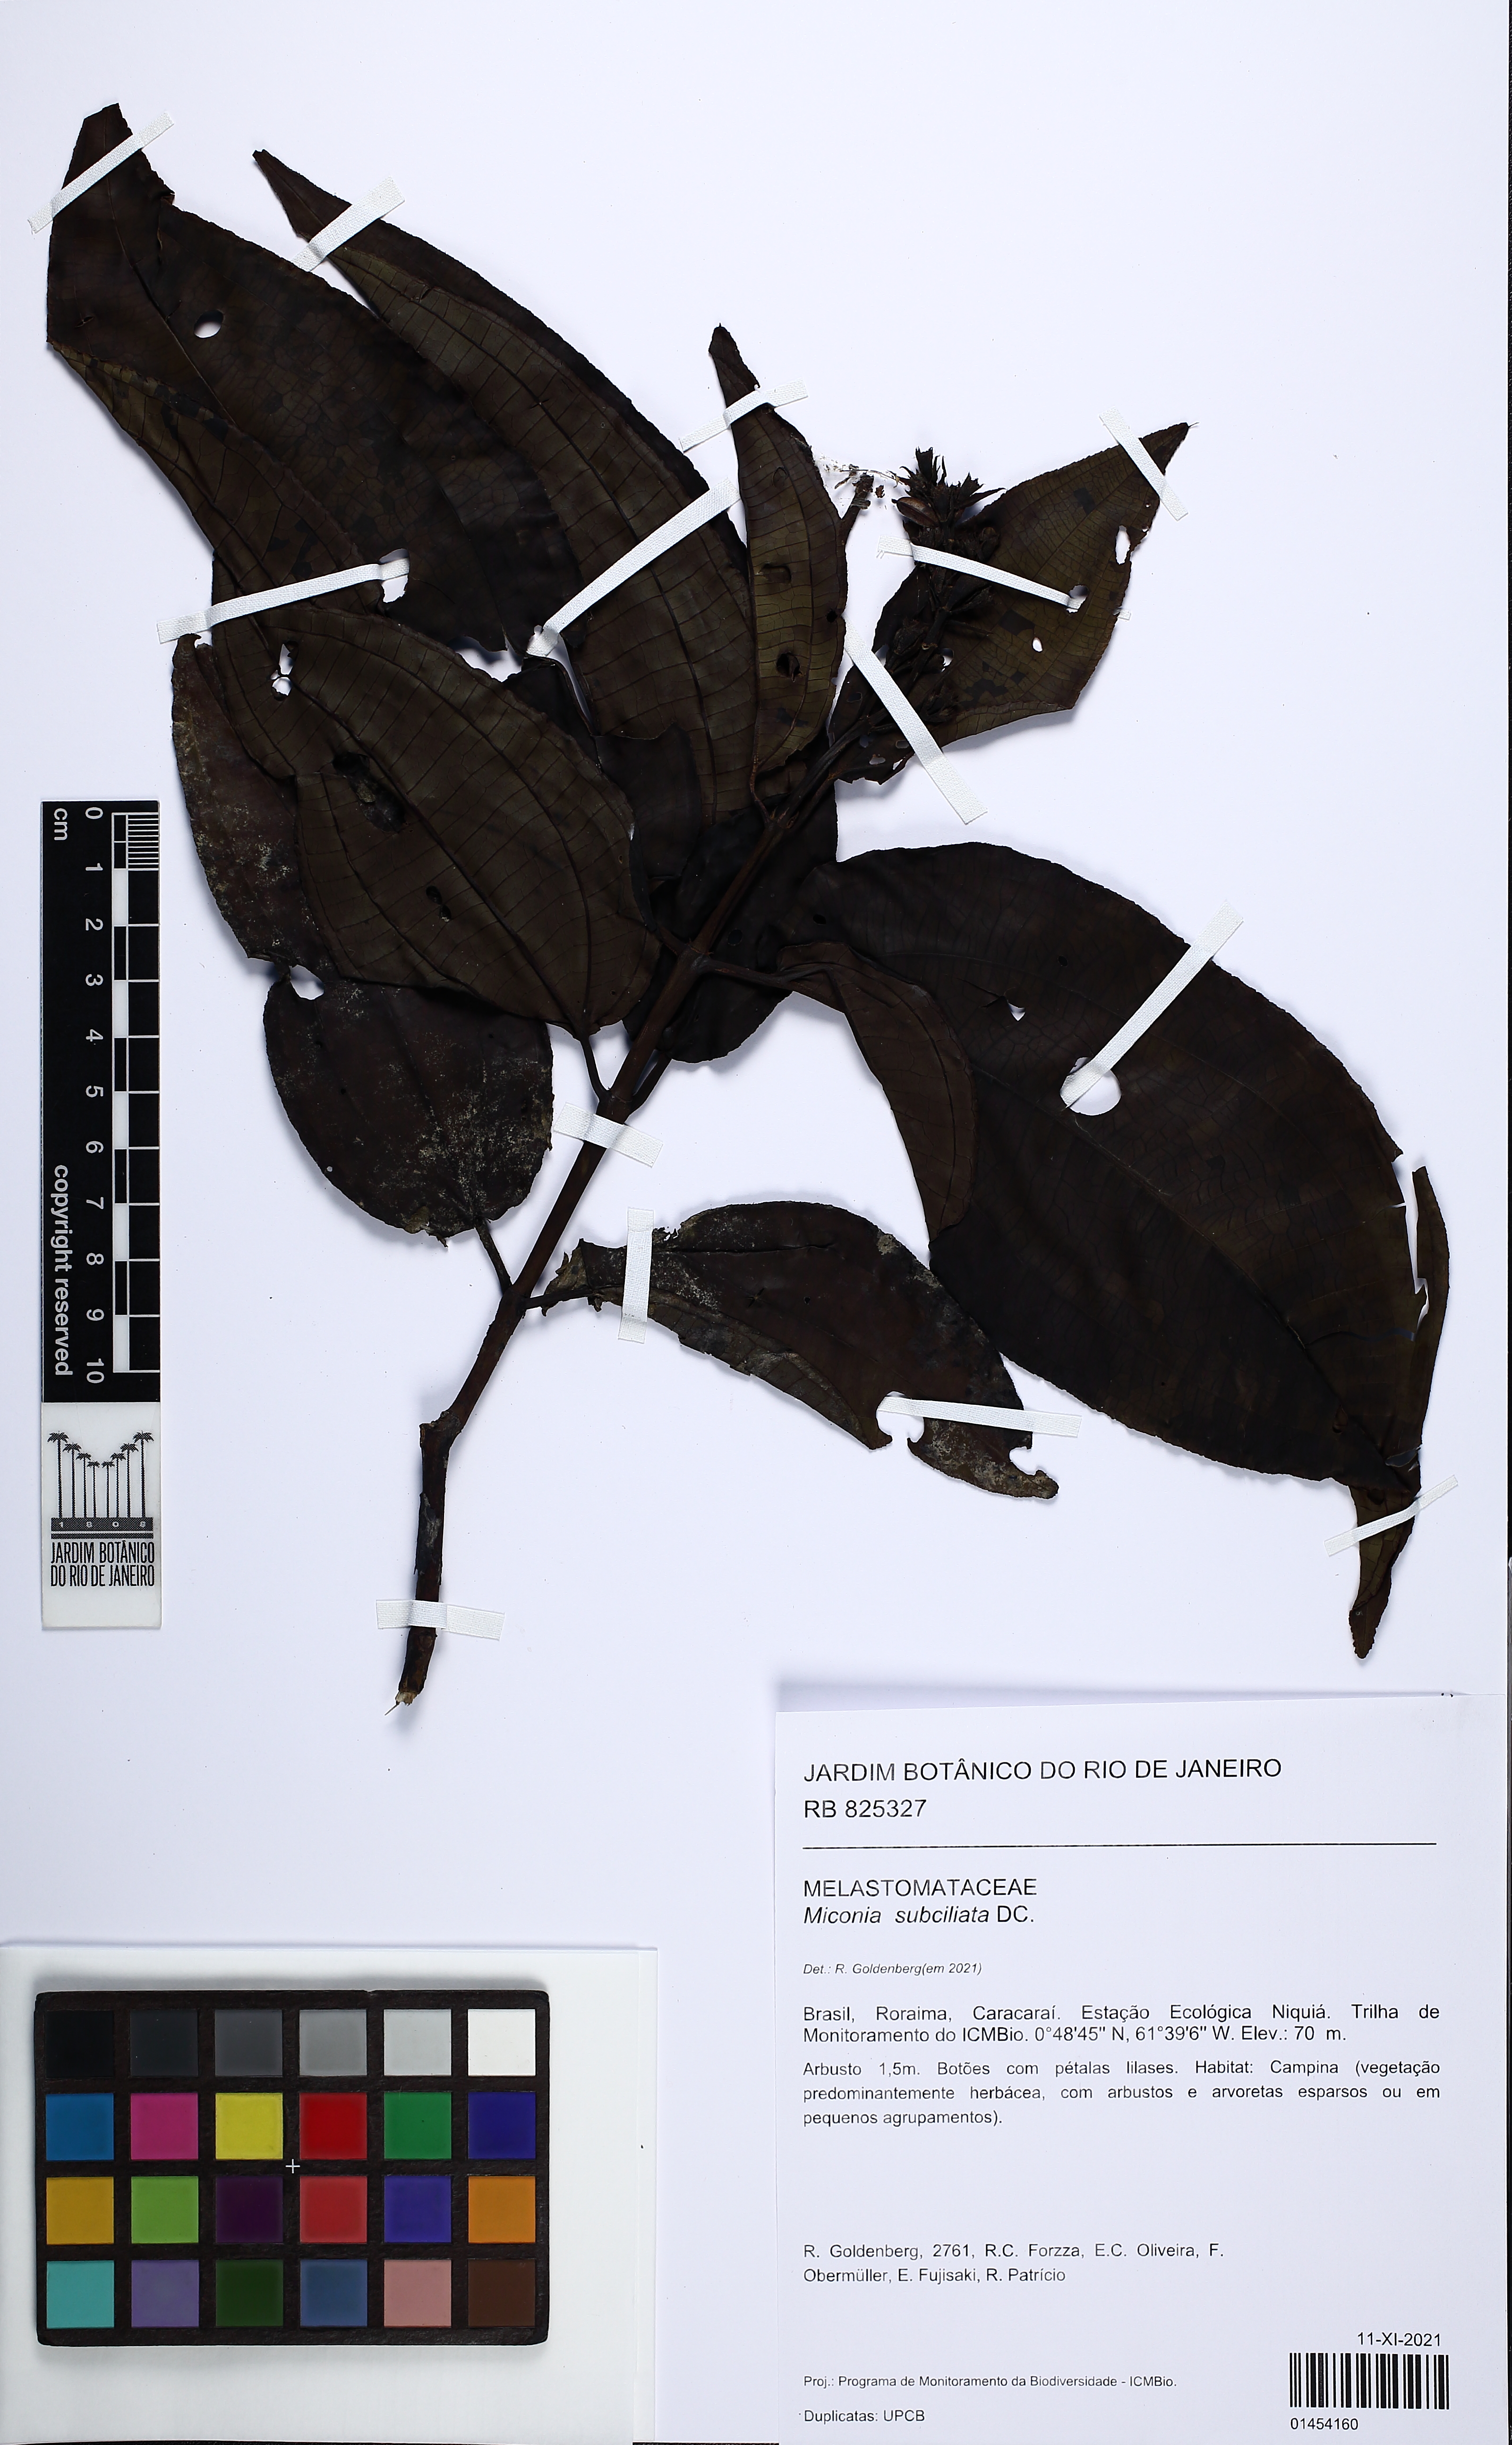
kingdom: Plantae
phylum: Tracheophyta
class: Magnoliopsida
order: Myrtales
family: Melastomataceae
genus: Miconia
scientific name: Miconia subciliata
